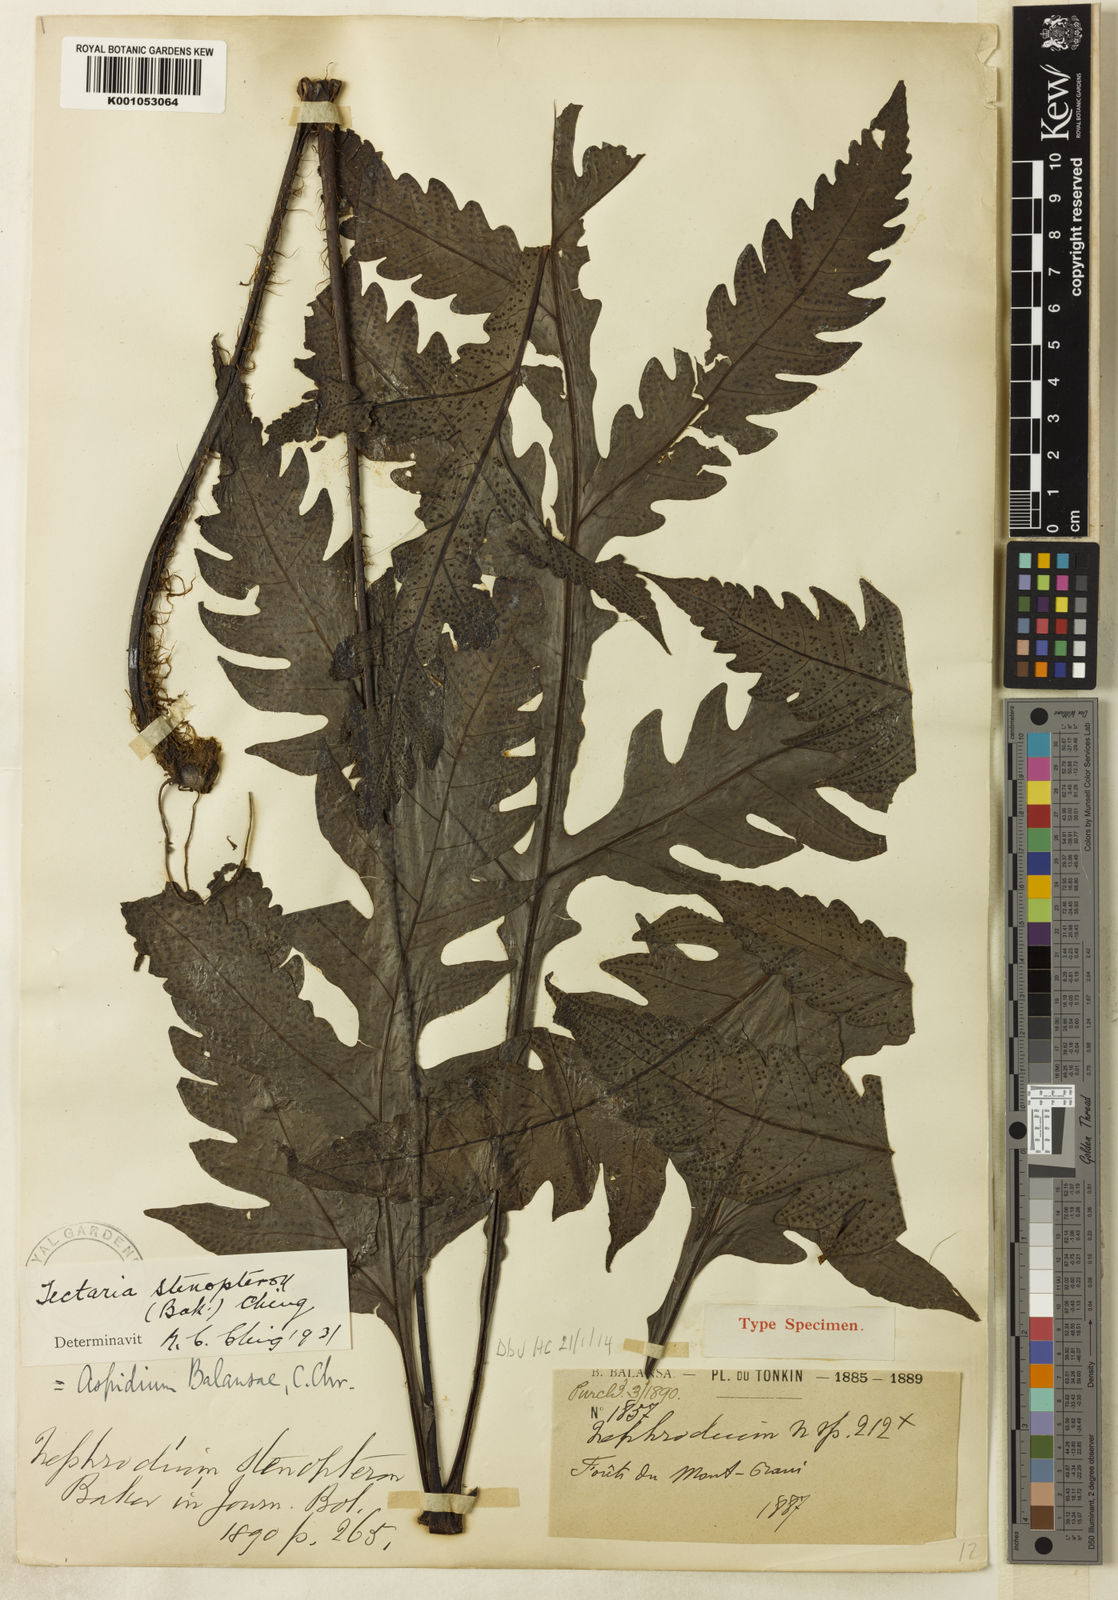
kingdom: Plantae
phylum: Tracheophyta
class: Polypodiopsida
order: Polypodiales
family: Tectariaceae
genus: Tectaria
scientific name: Tectaria balansae
